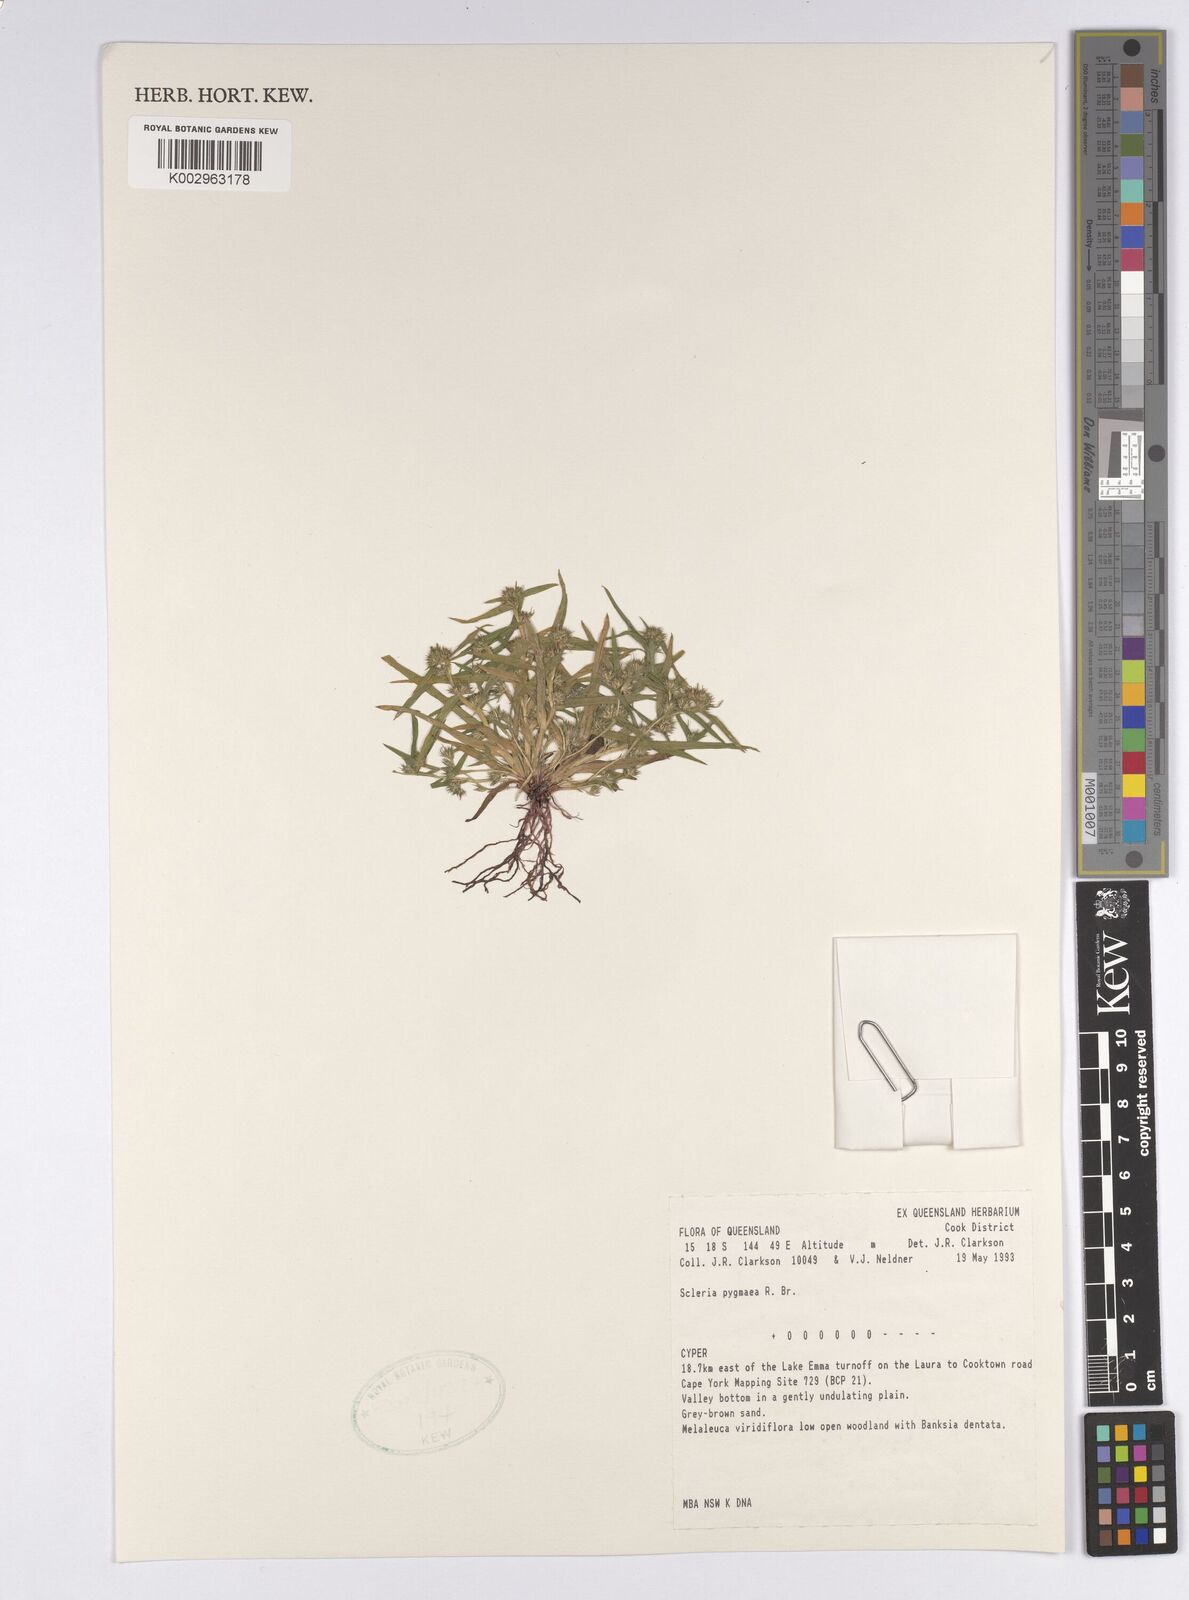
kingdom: Plantae
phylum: Tracheophyta
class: Liliopsida
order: Poales
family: Cyperaceae
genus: Diplacrum
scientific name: Diplacrum pygmaeum
